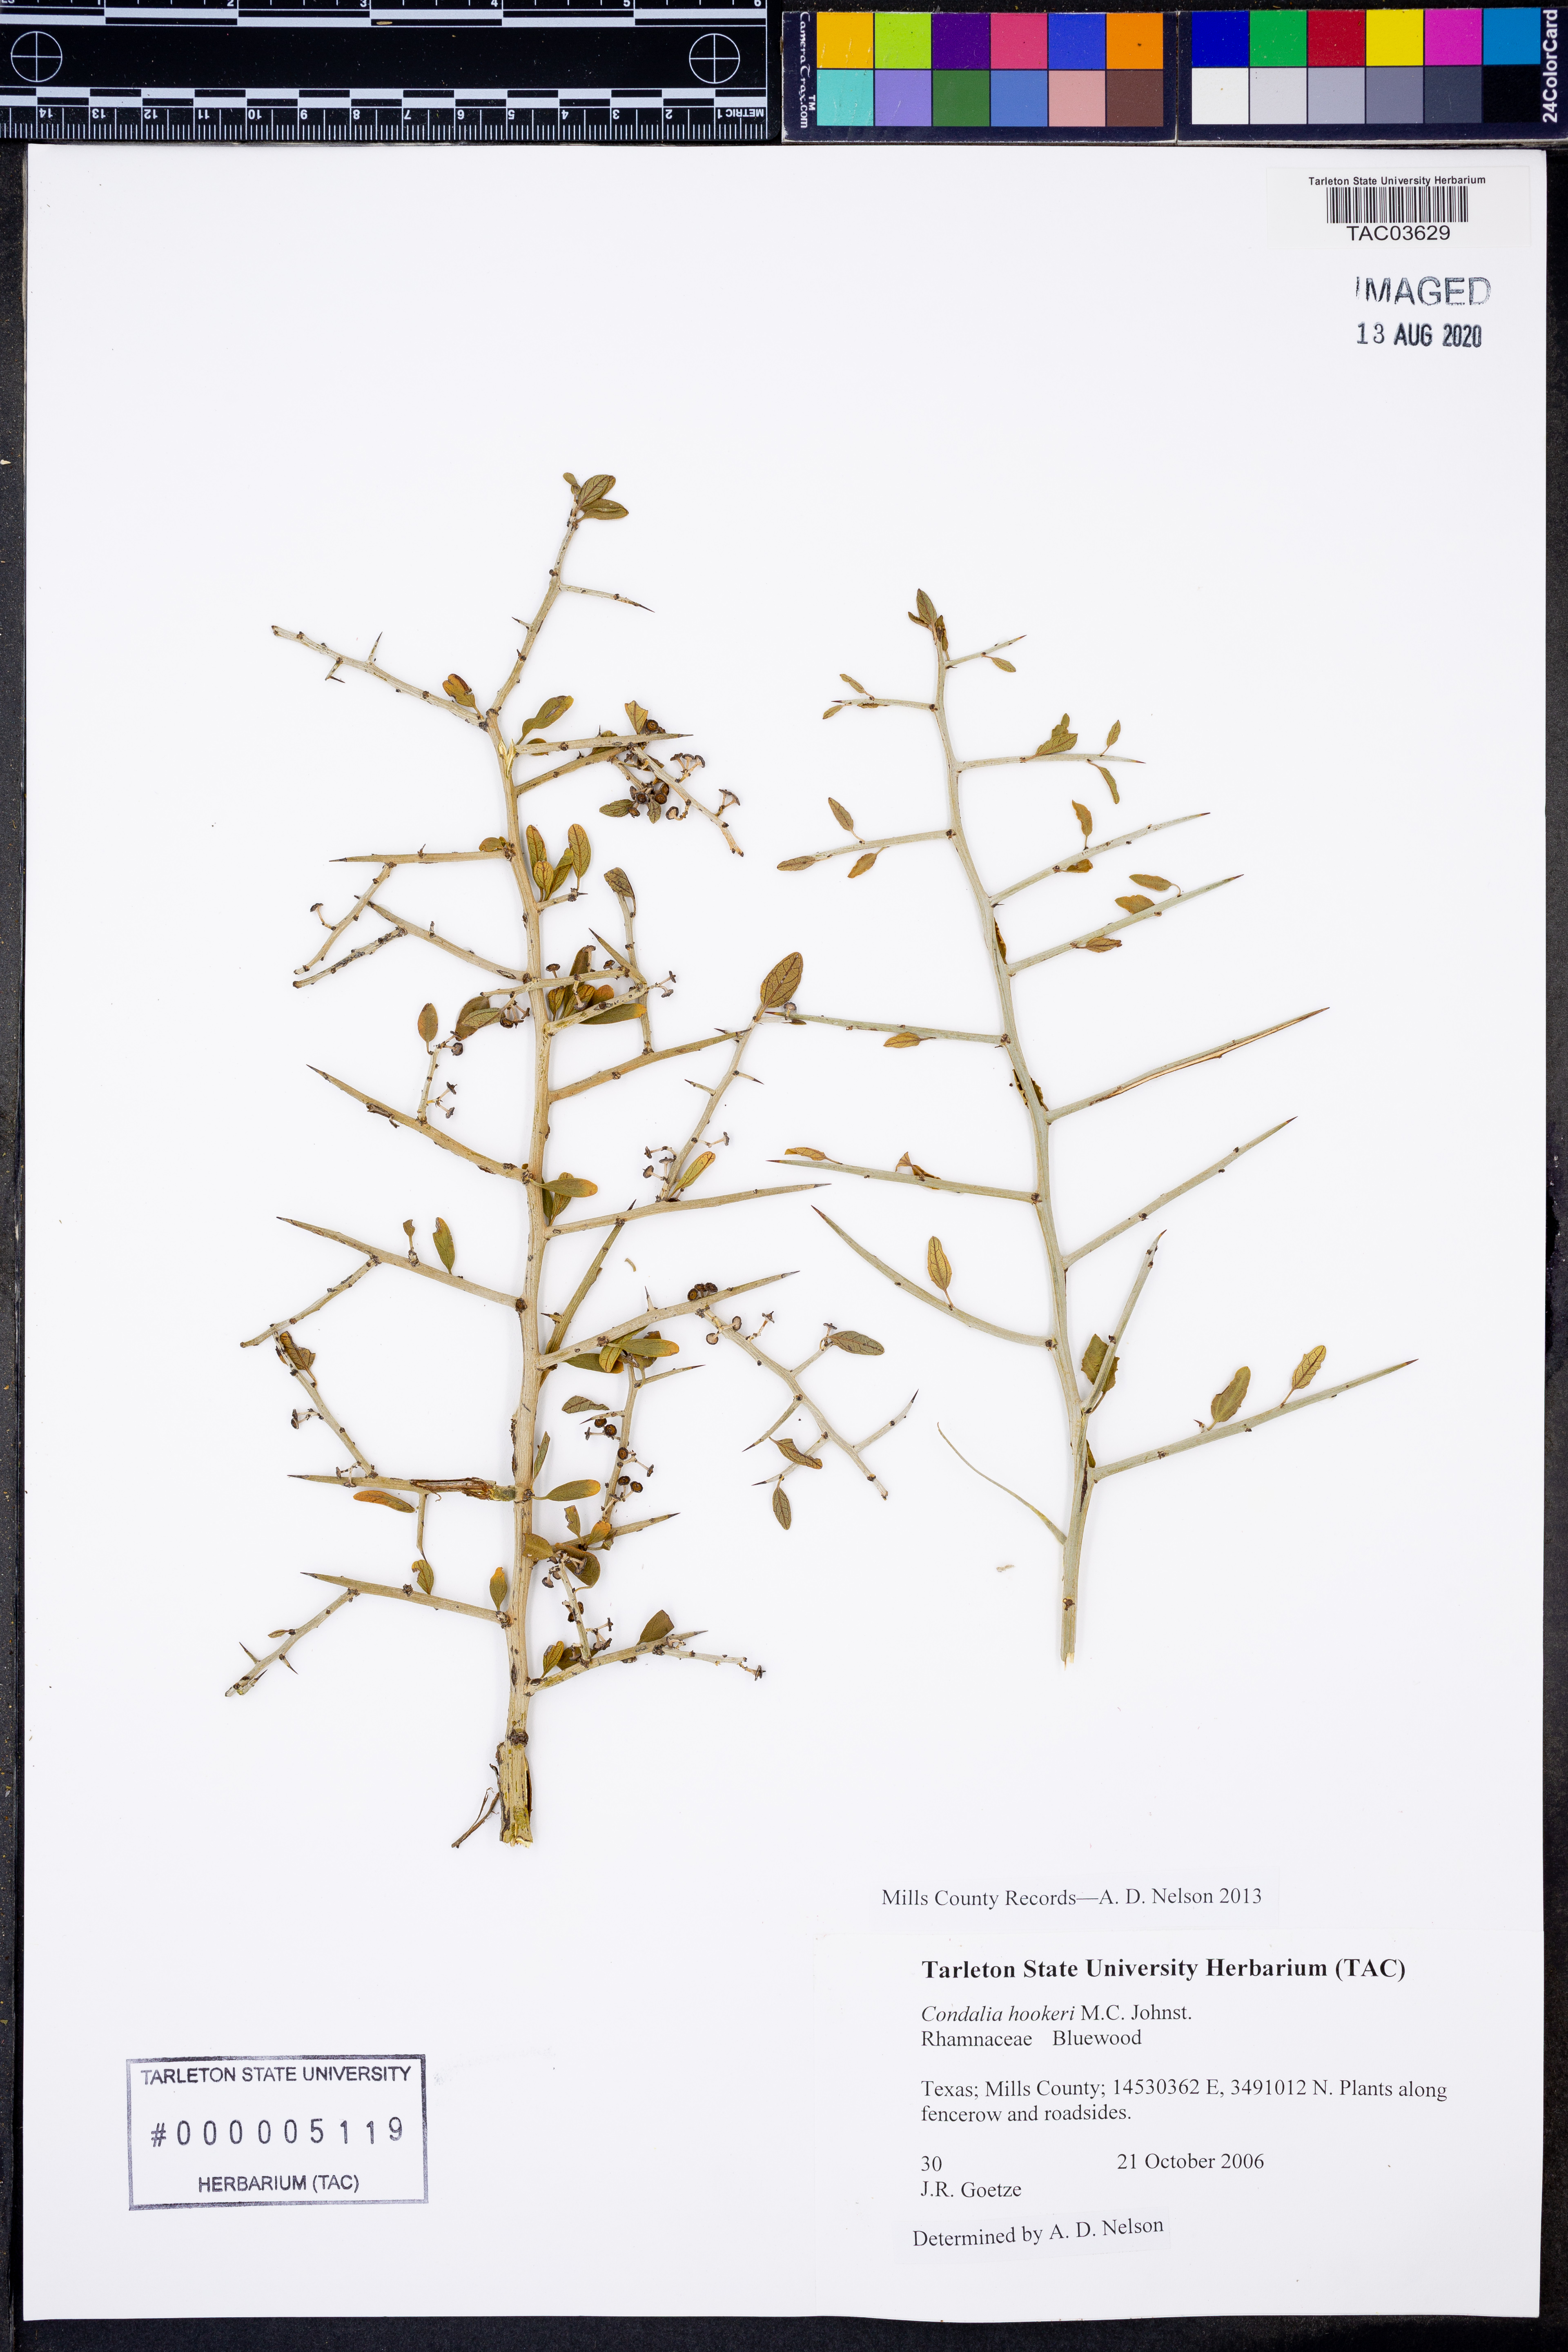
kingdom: Plantae
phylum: Tracheophyta
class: Magnoliopsida
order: Rosales
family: Rhamnaceae
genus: Condalia
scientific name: Condalia hookeri
